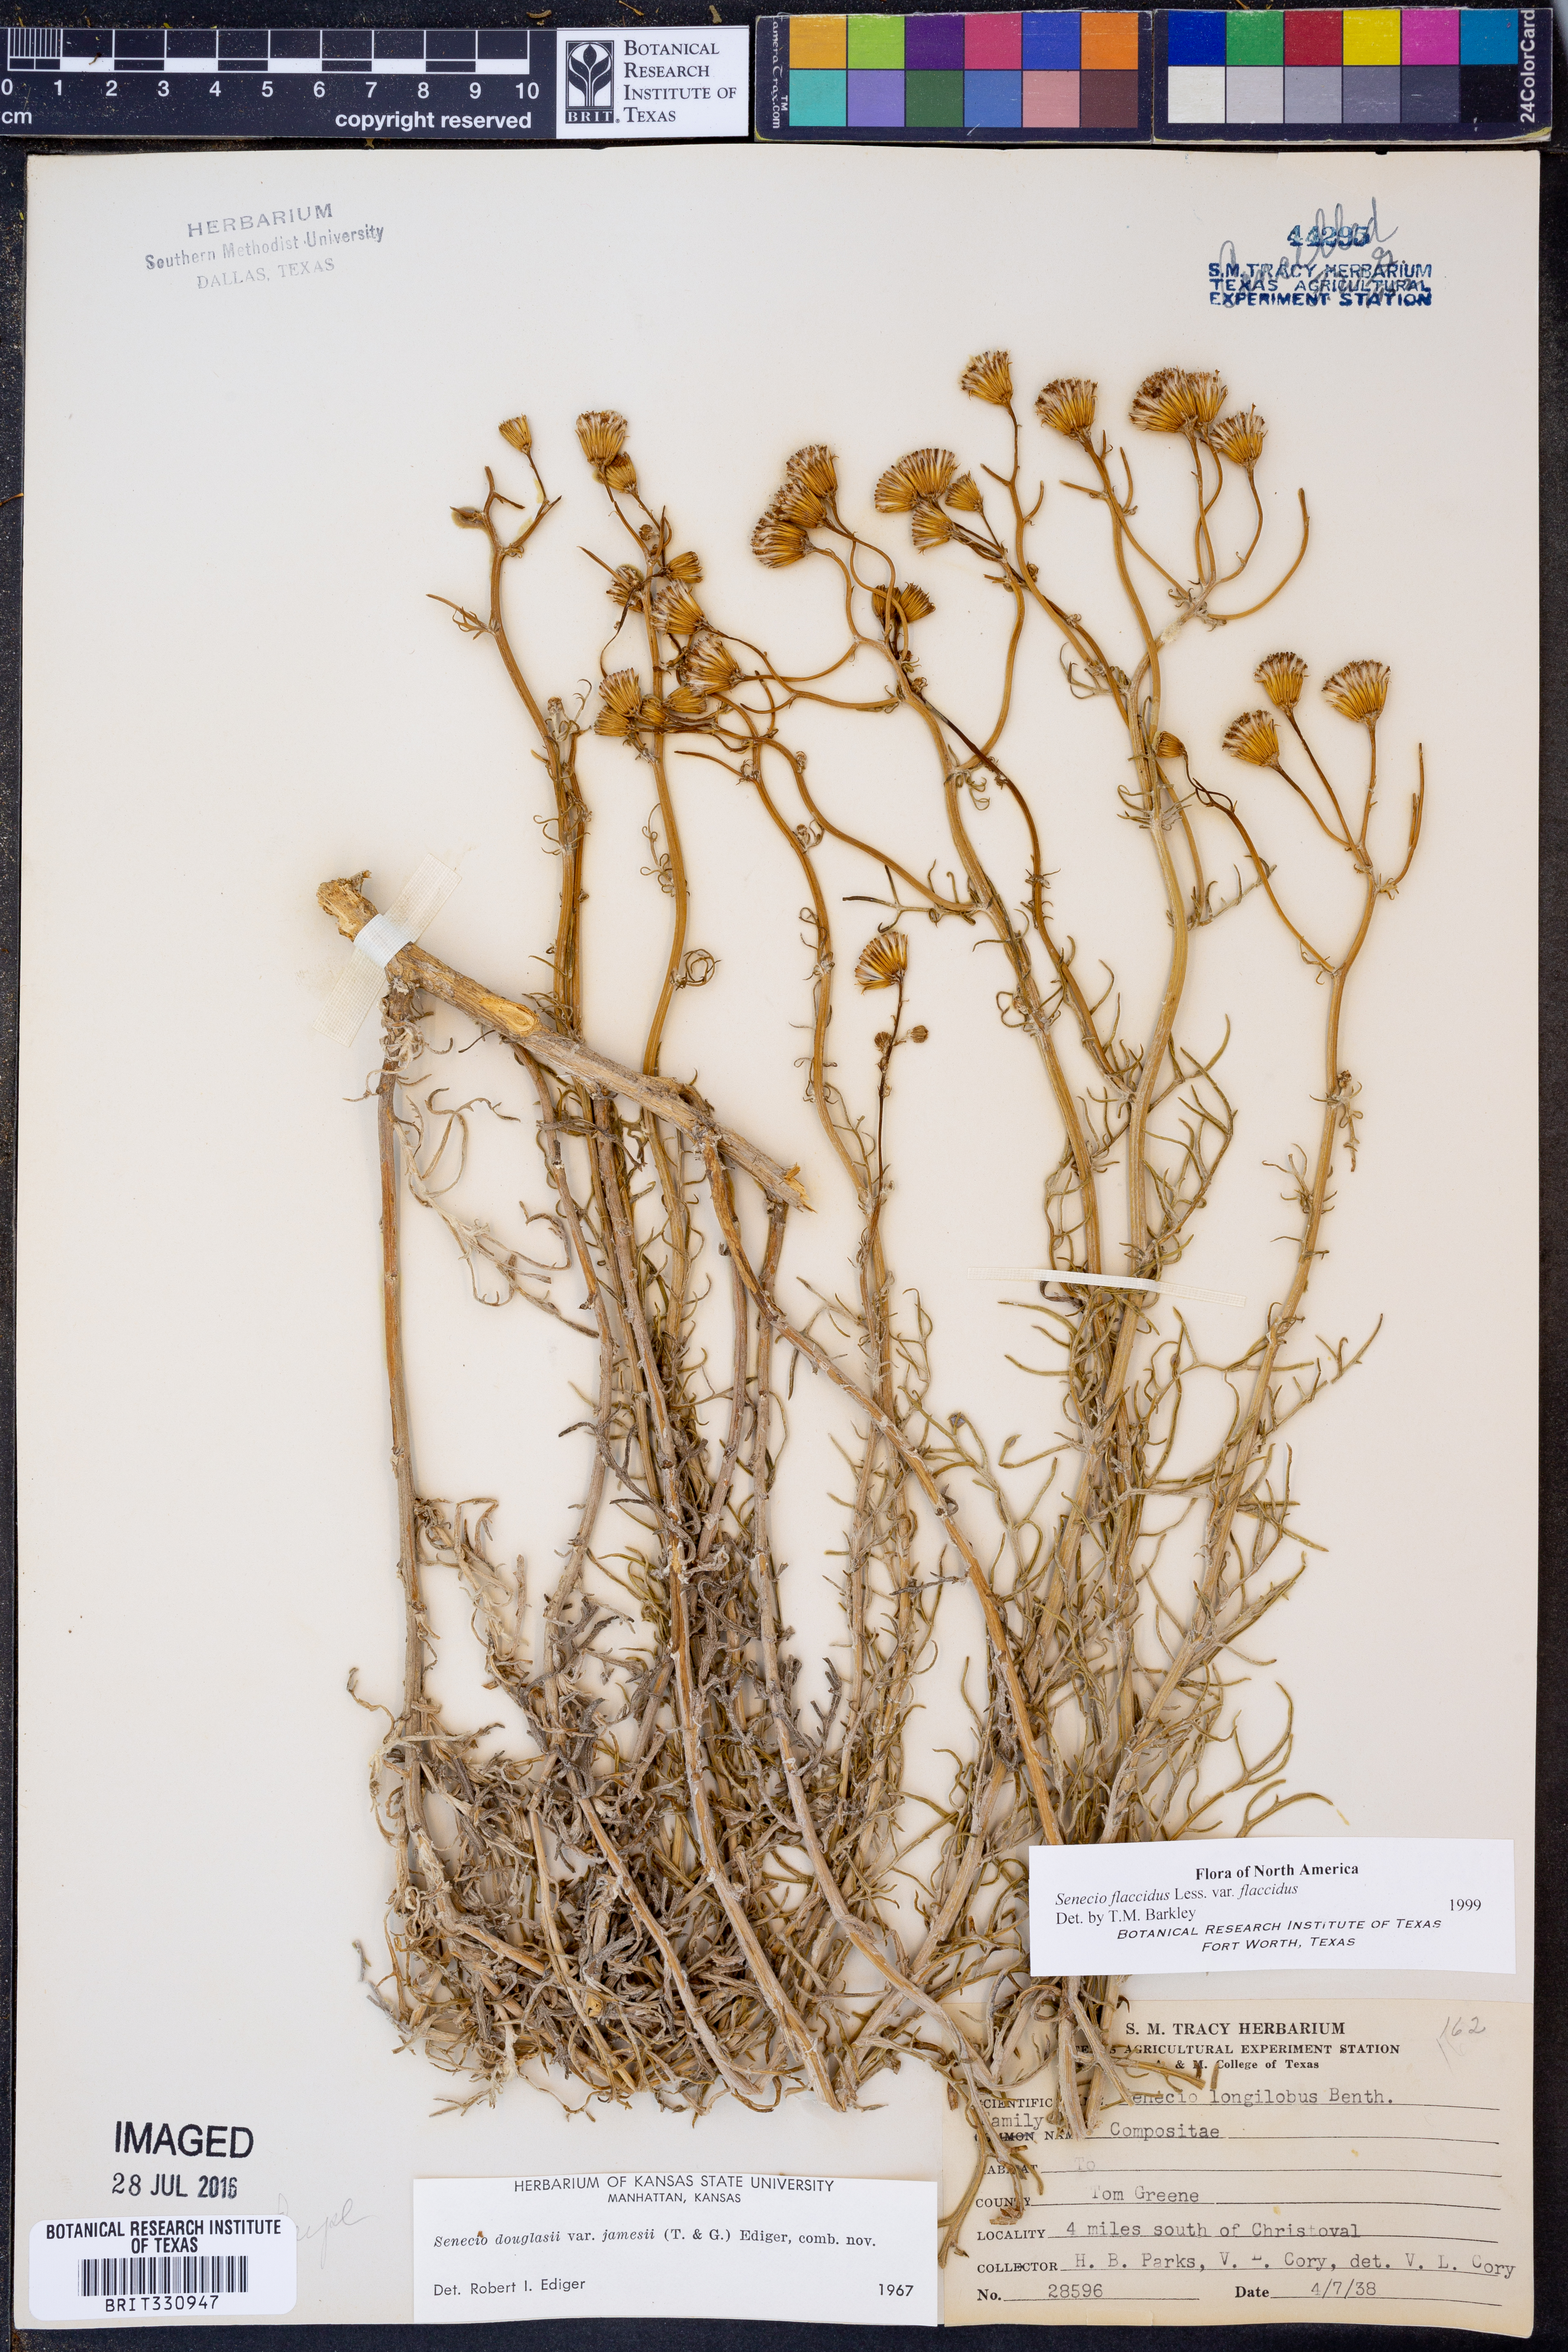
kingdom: Plantae
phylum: Tracheophyta
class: Magnoliopsida
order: Asterales
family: Asteraceae
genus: Senecio
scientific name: Senecio flaccidus
